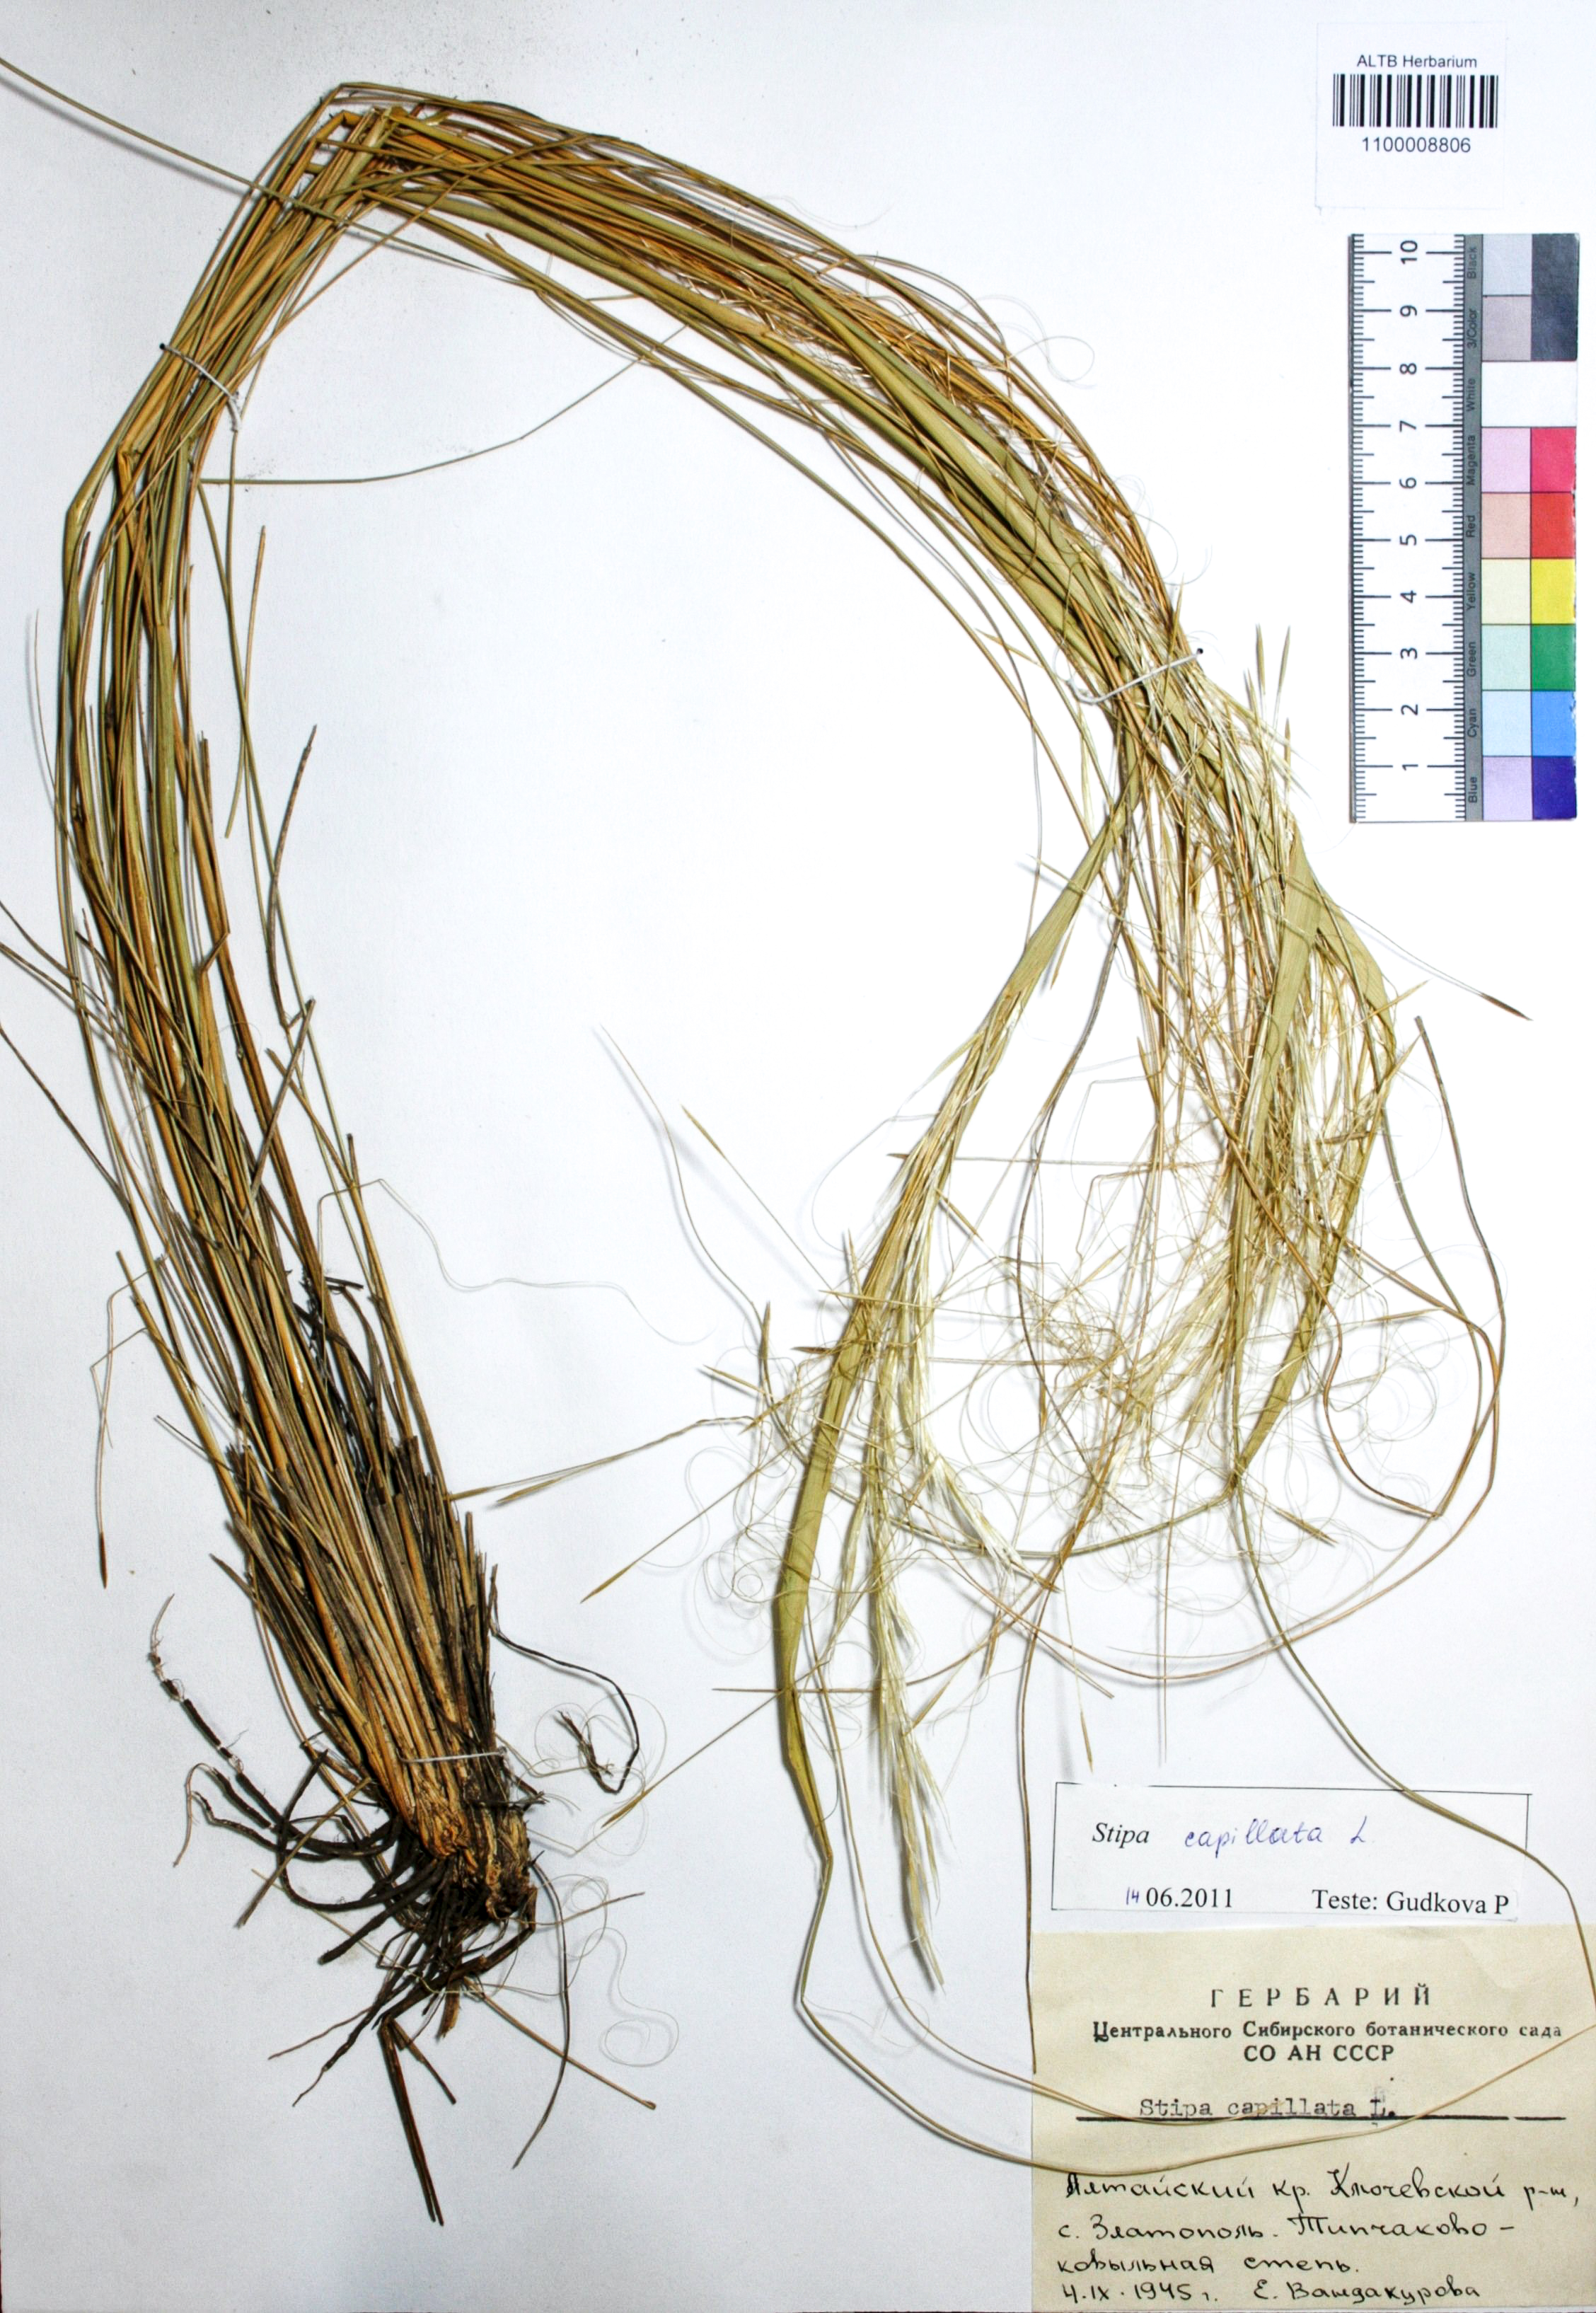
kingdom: Plantae
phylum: Tracheophyta
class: Liliopsida
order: Poales
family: Poaceae
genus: Stipa
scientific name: Stipa capillata
